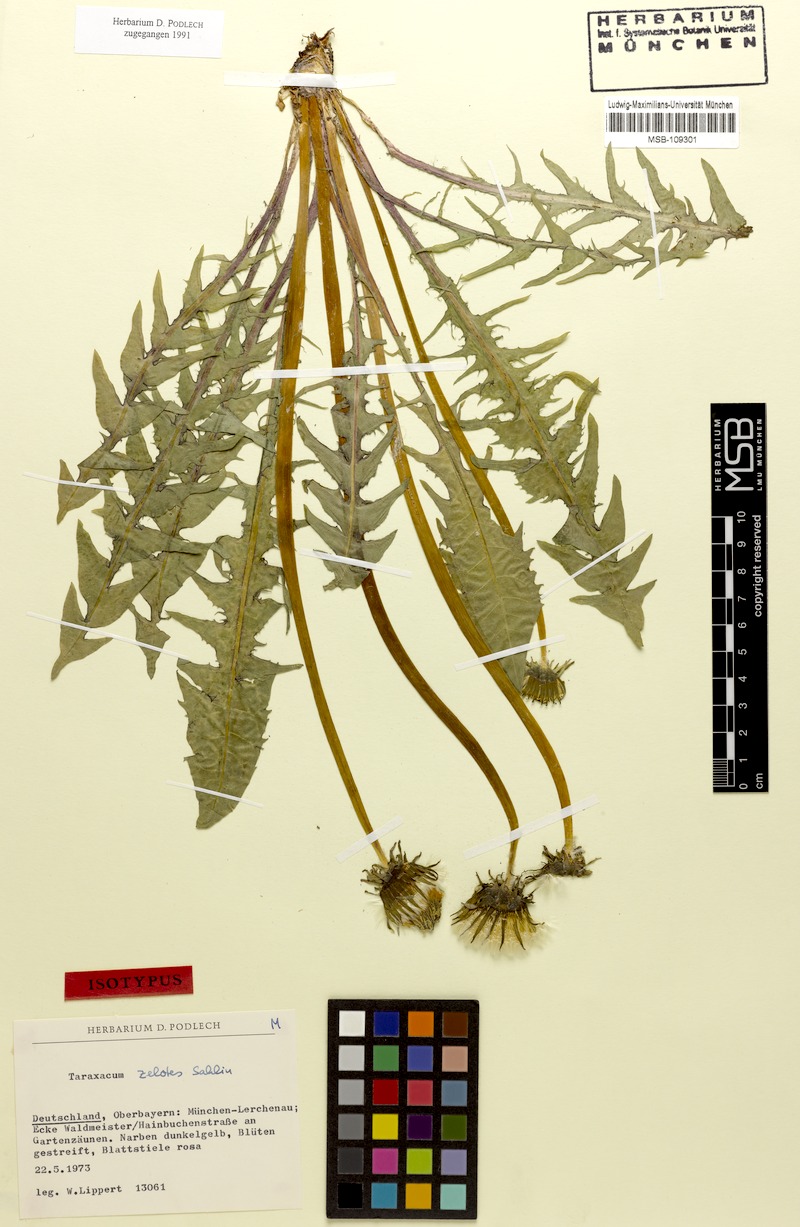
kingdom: Plantae
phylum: Tracheophyta
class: Magnoliopsida
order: Asterales
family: Asteraceae
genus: Taraxacum
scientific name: Taraxacum zelotes
